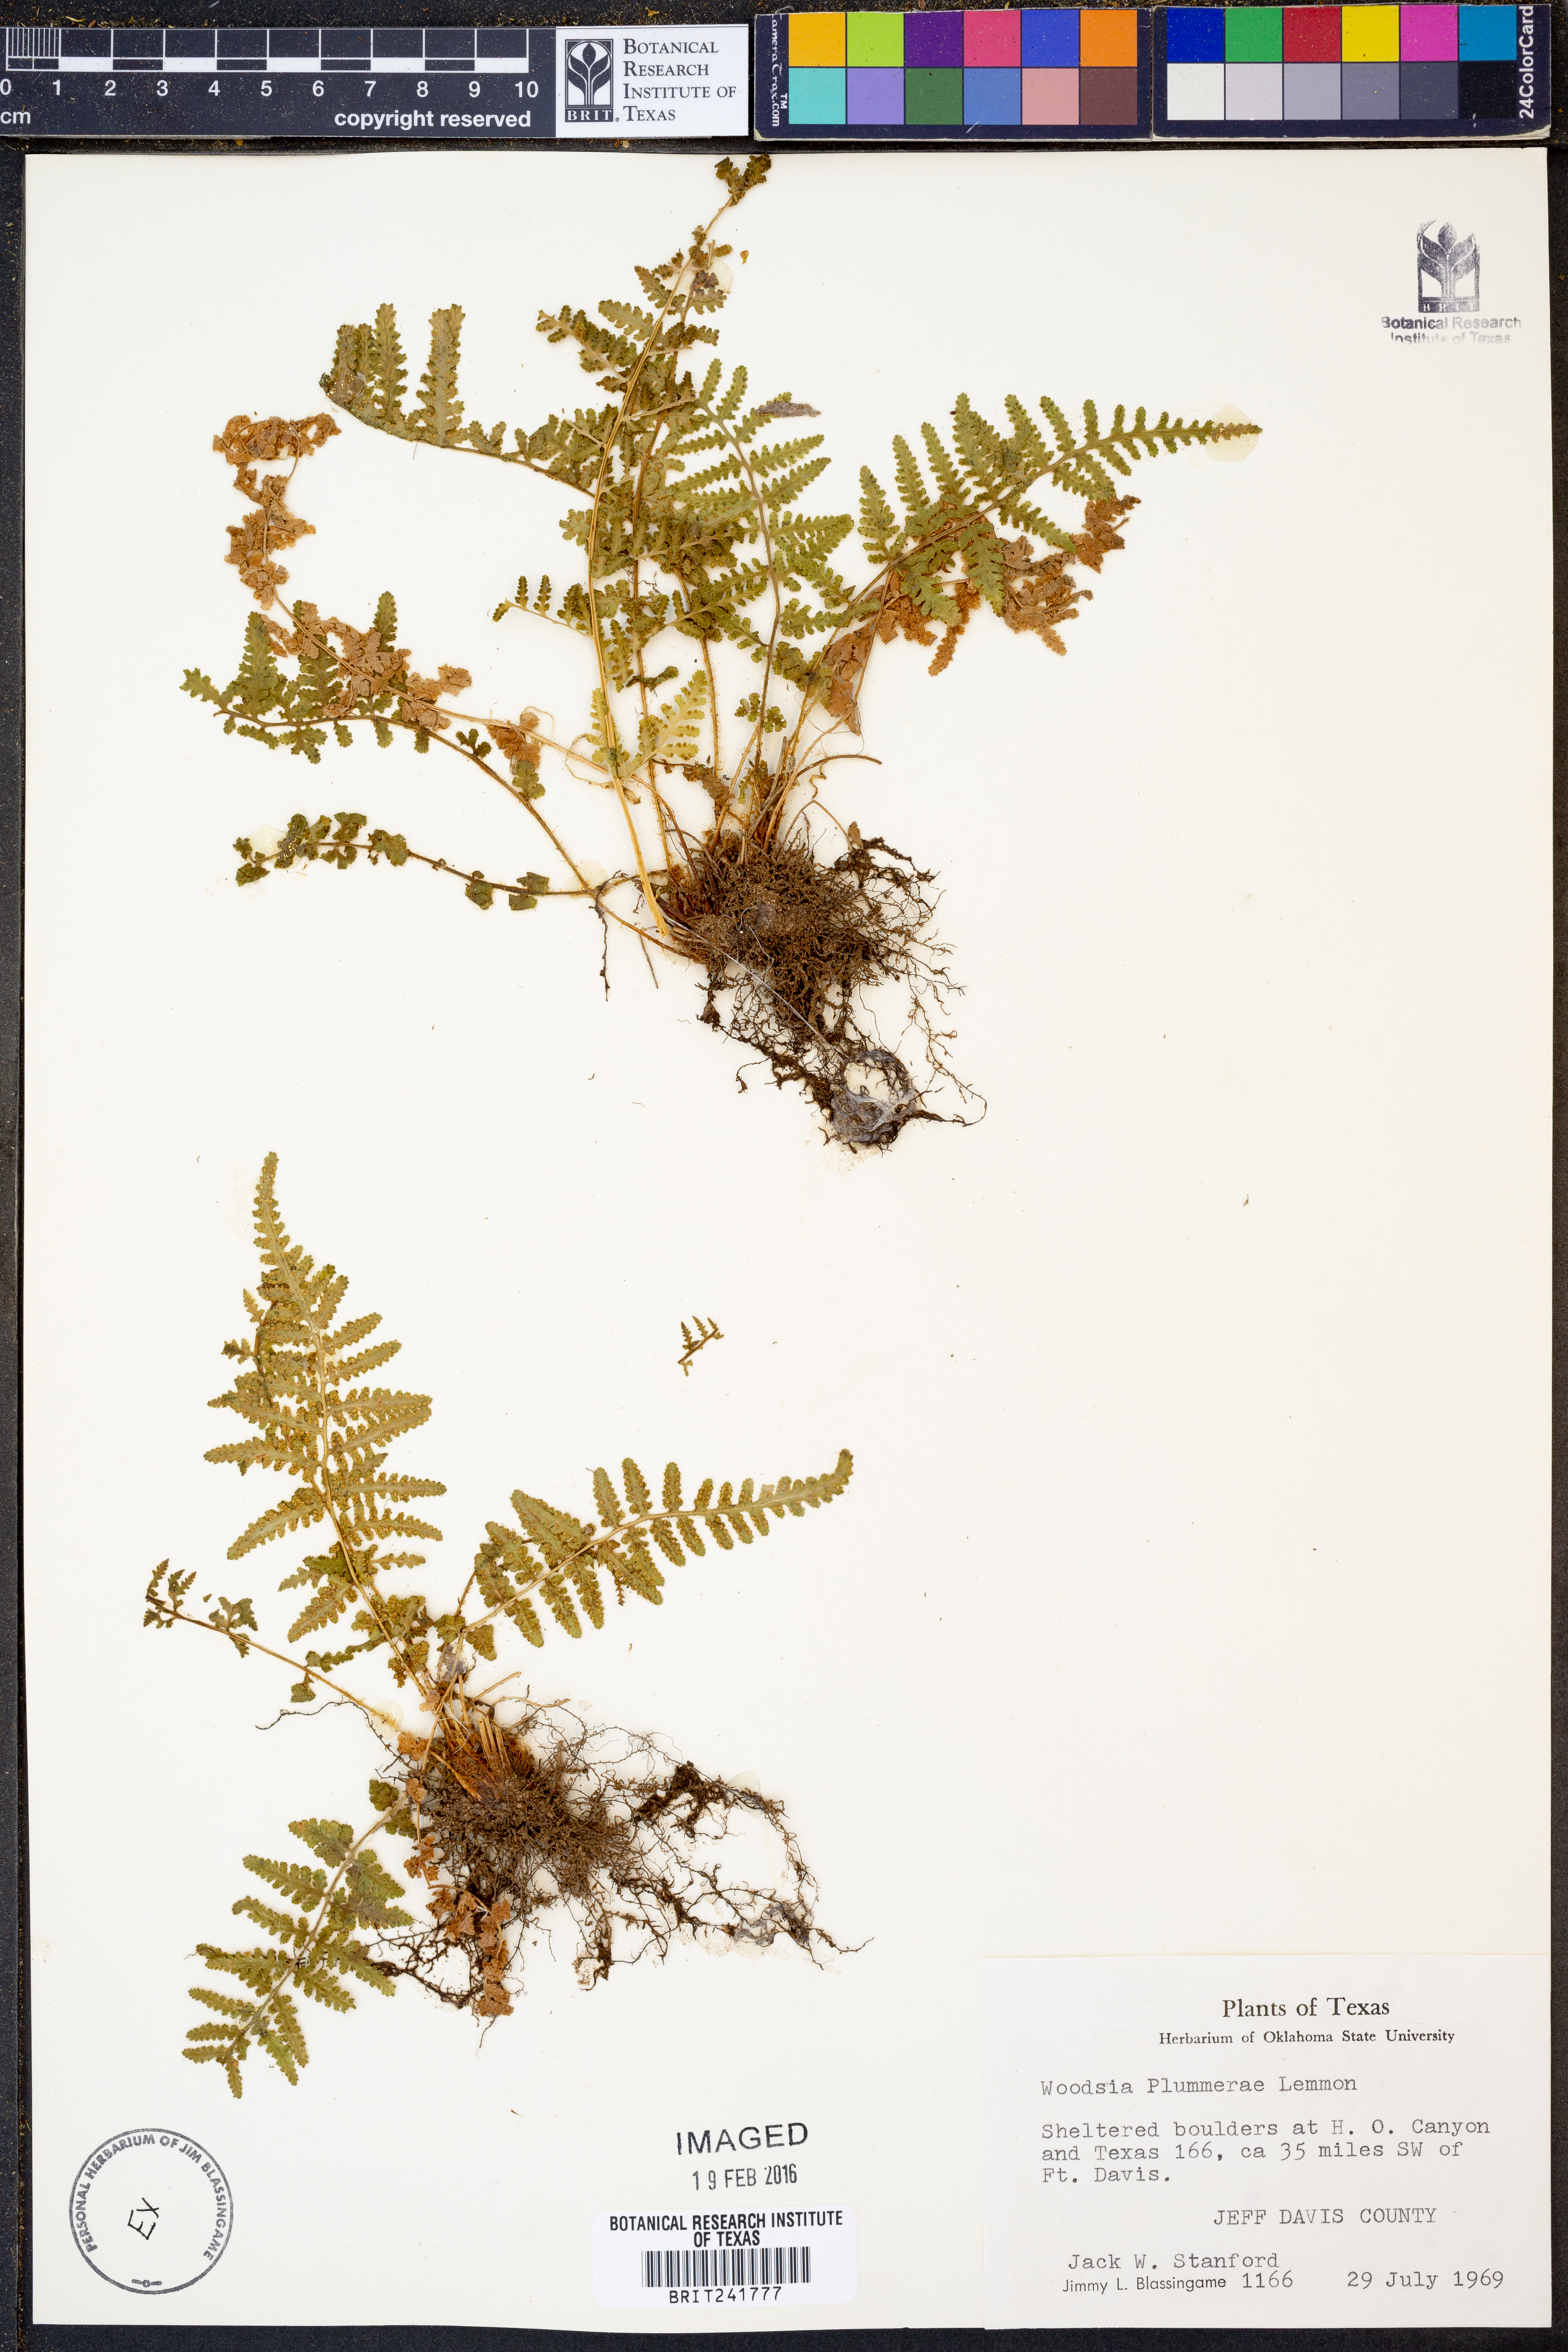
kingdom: Plantae
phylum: Tracheophyta
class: Polypodiopsida
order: Polypodiales
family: Woodsiaceae
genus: Physematium
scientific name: Physematium plummerae
